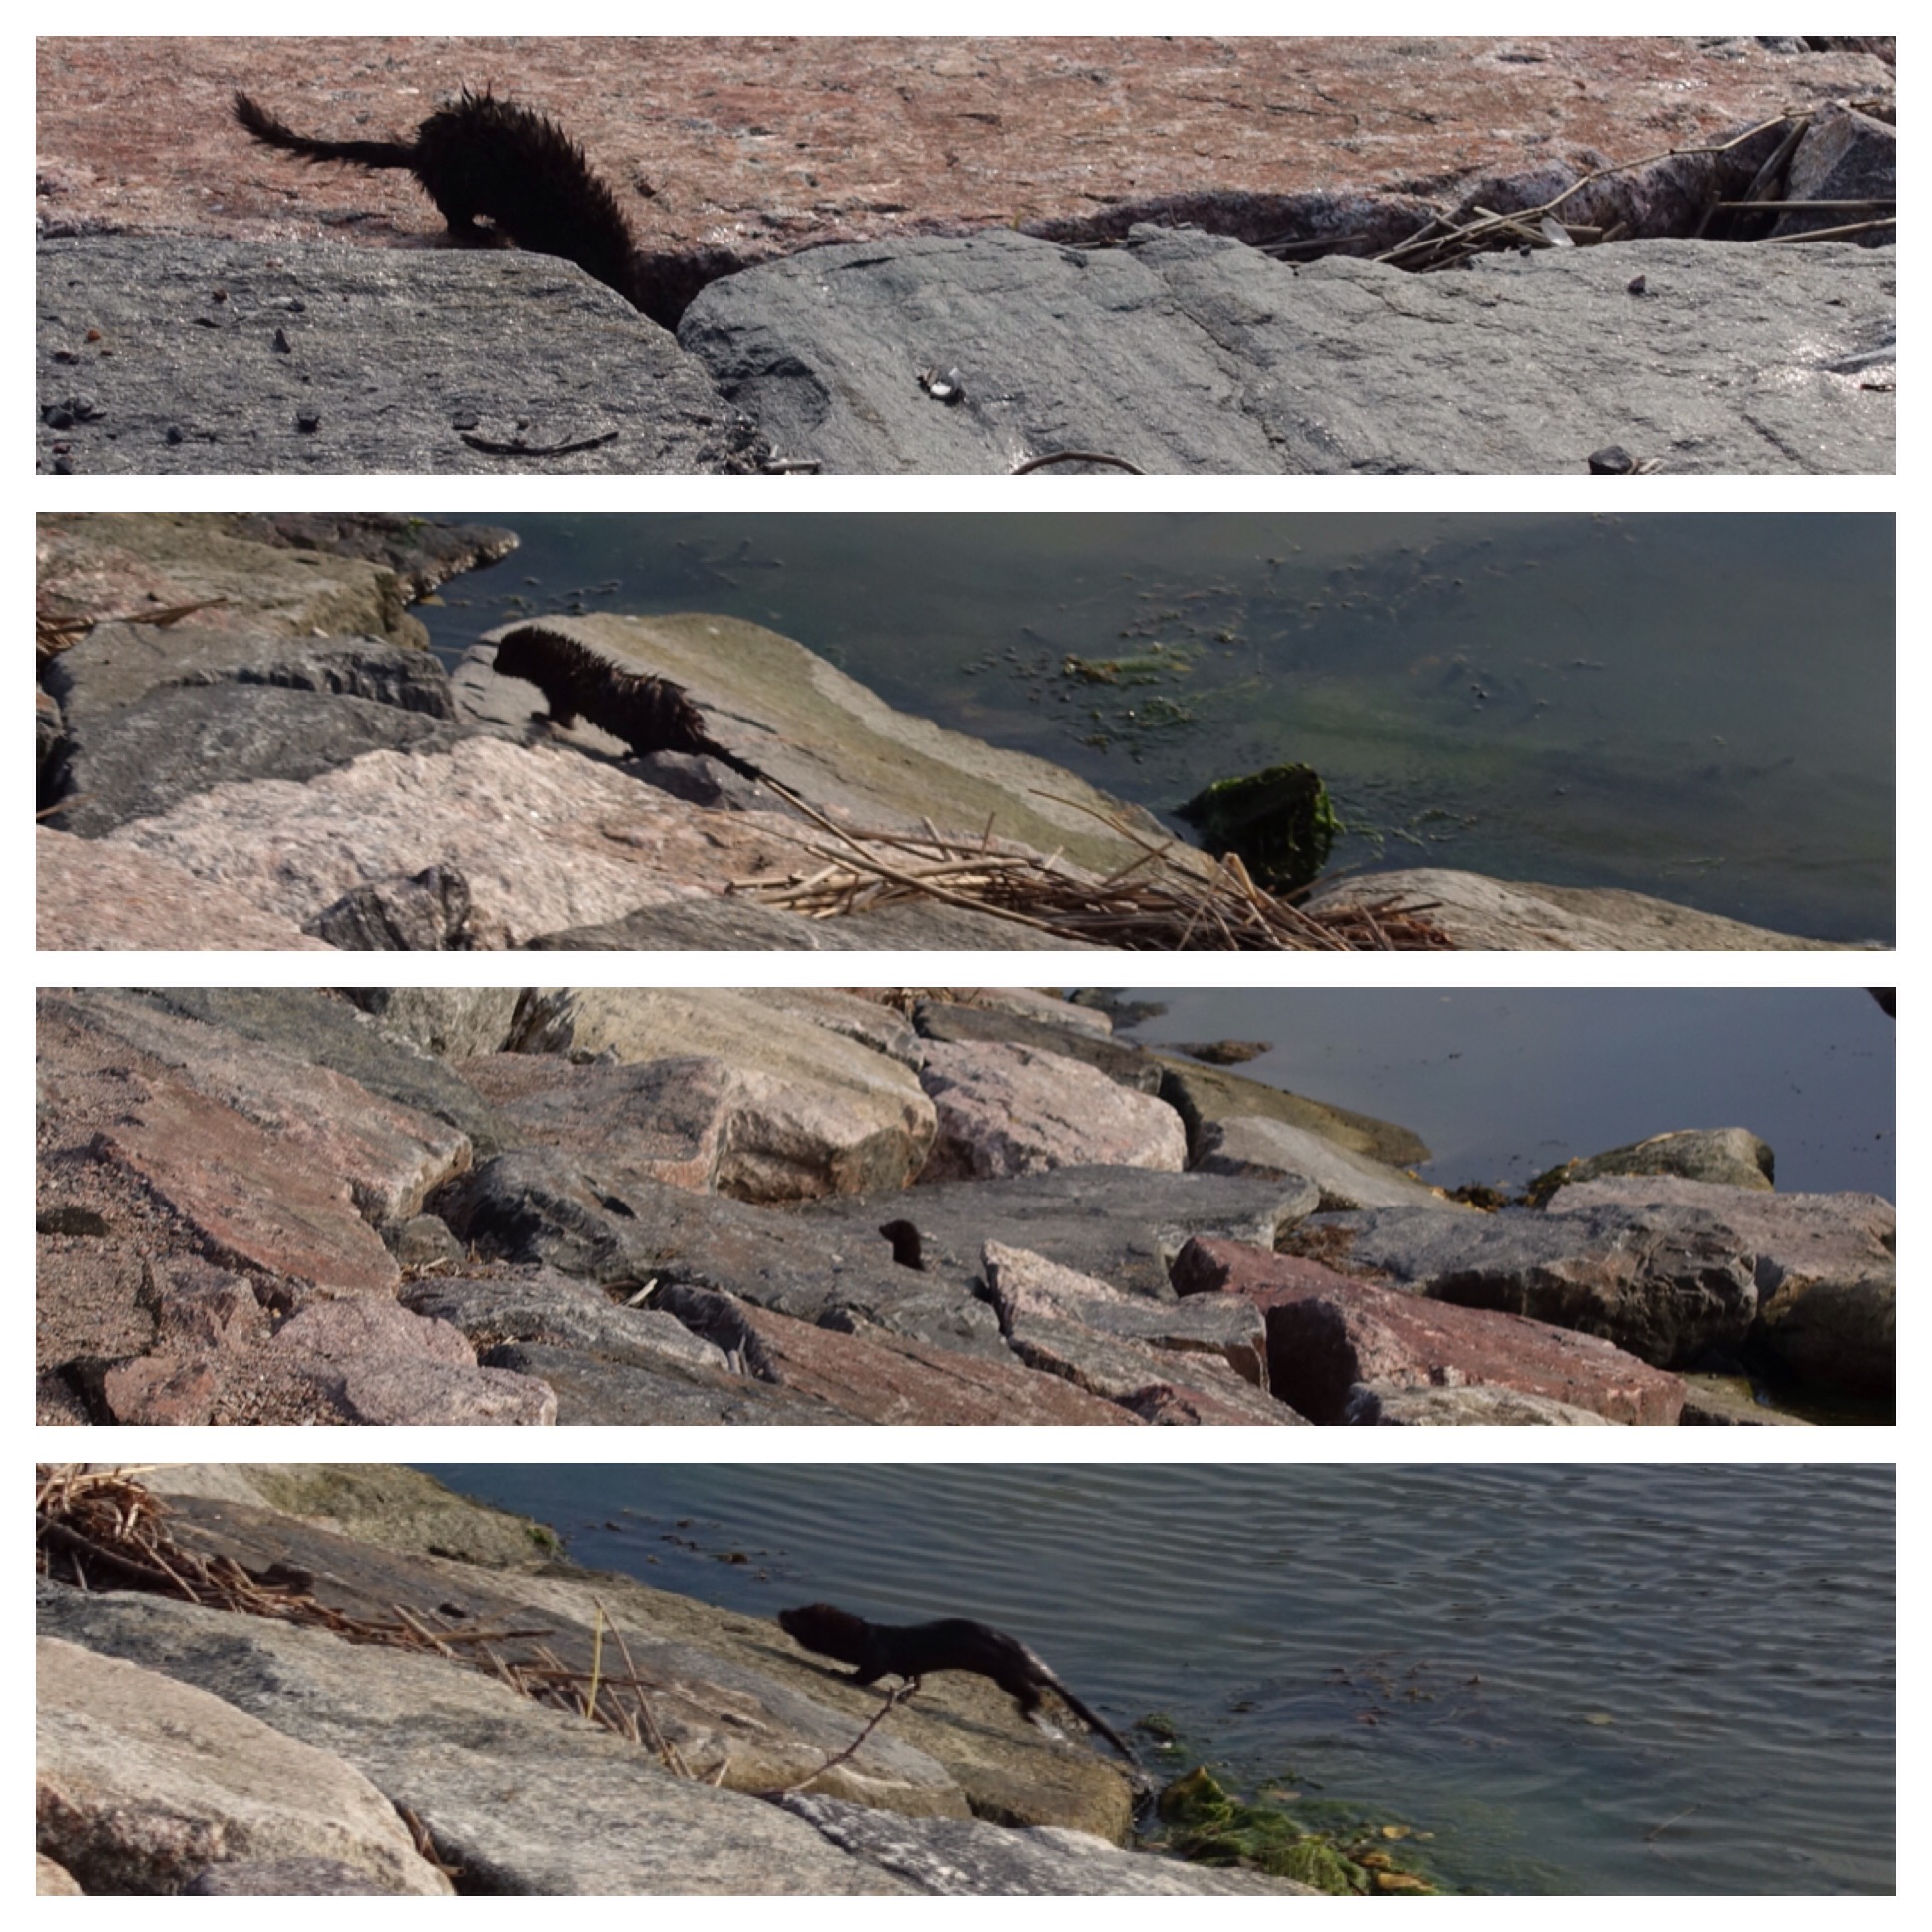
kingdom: Animalia
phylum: Chordata
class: Mammalia
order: Carnivora
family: Mustelidae
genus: Mustela
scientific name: Mustela
